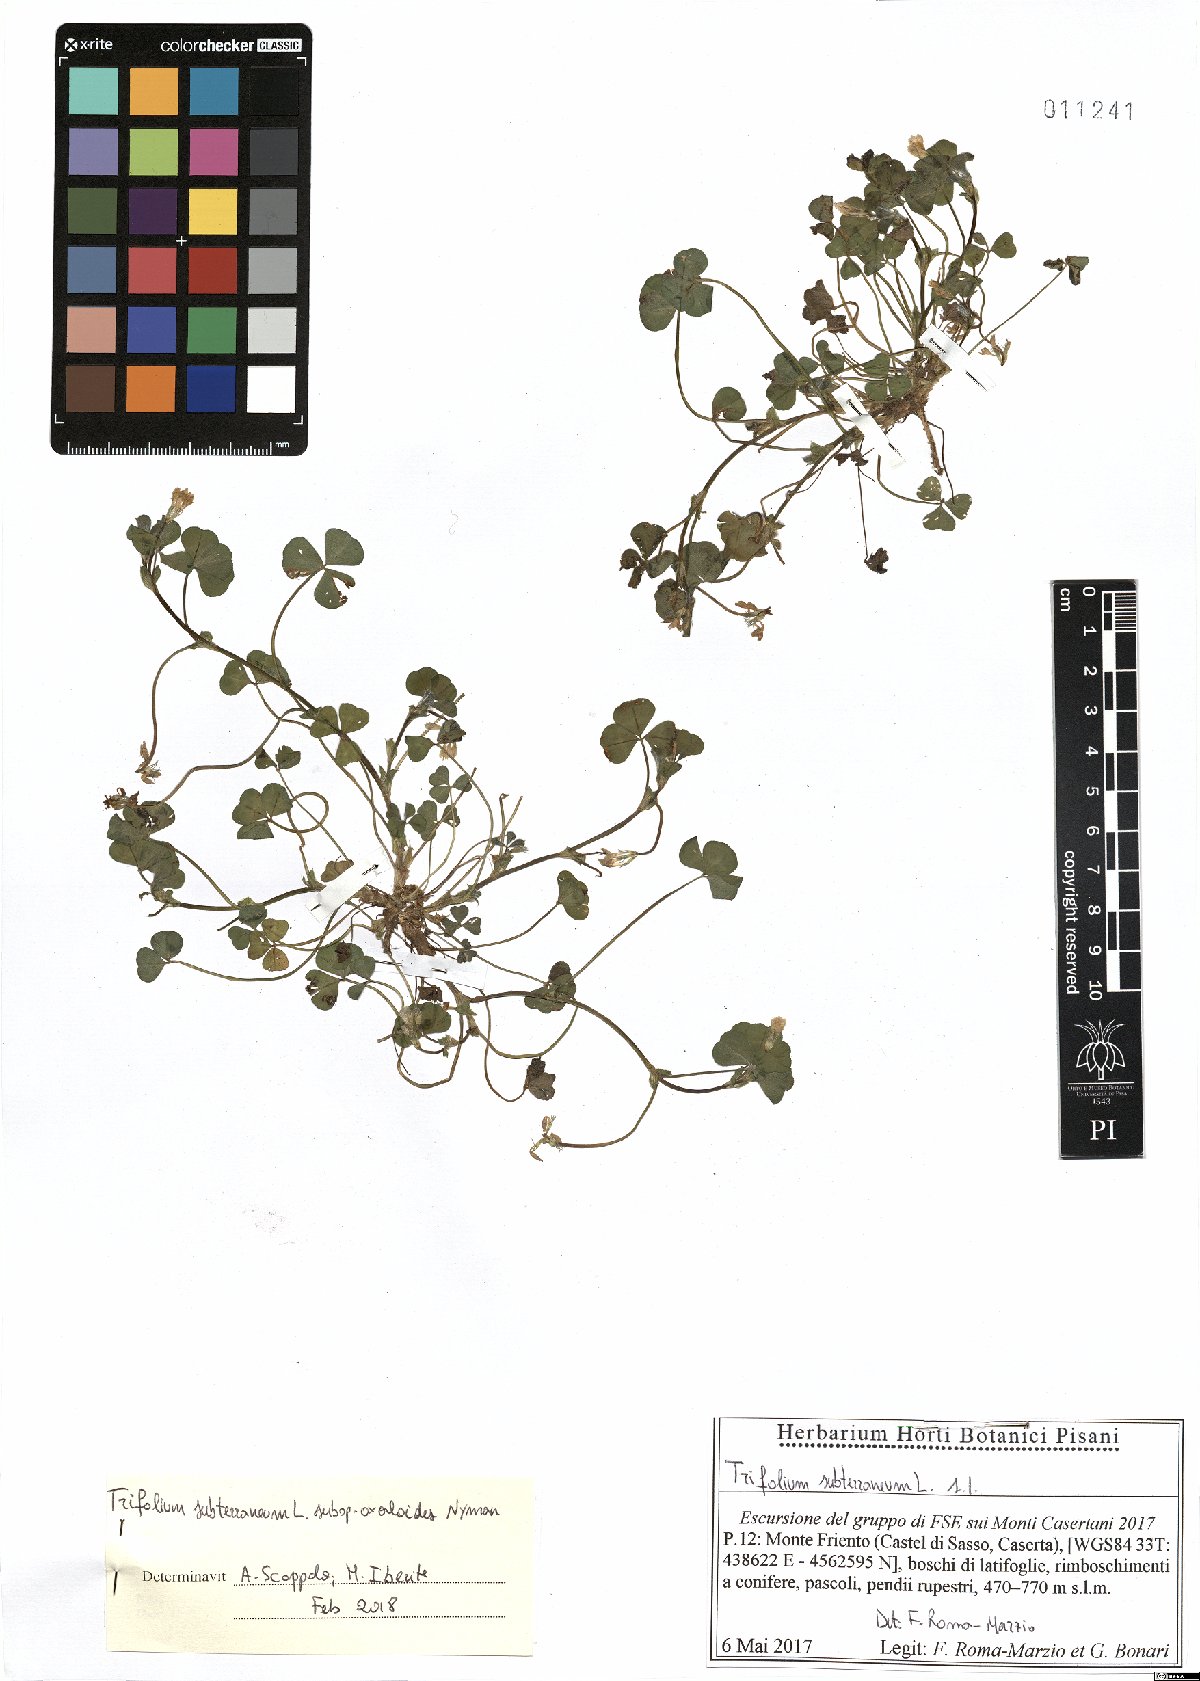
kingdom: Plantae
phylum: Tracheophyta
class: Magnoliopsida
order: Fabales
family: Fabaceae
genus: Trifolium
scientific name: Trifolium subterraneum
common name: Subterranean clover
